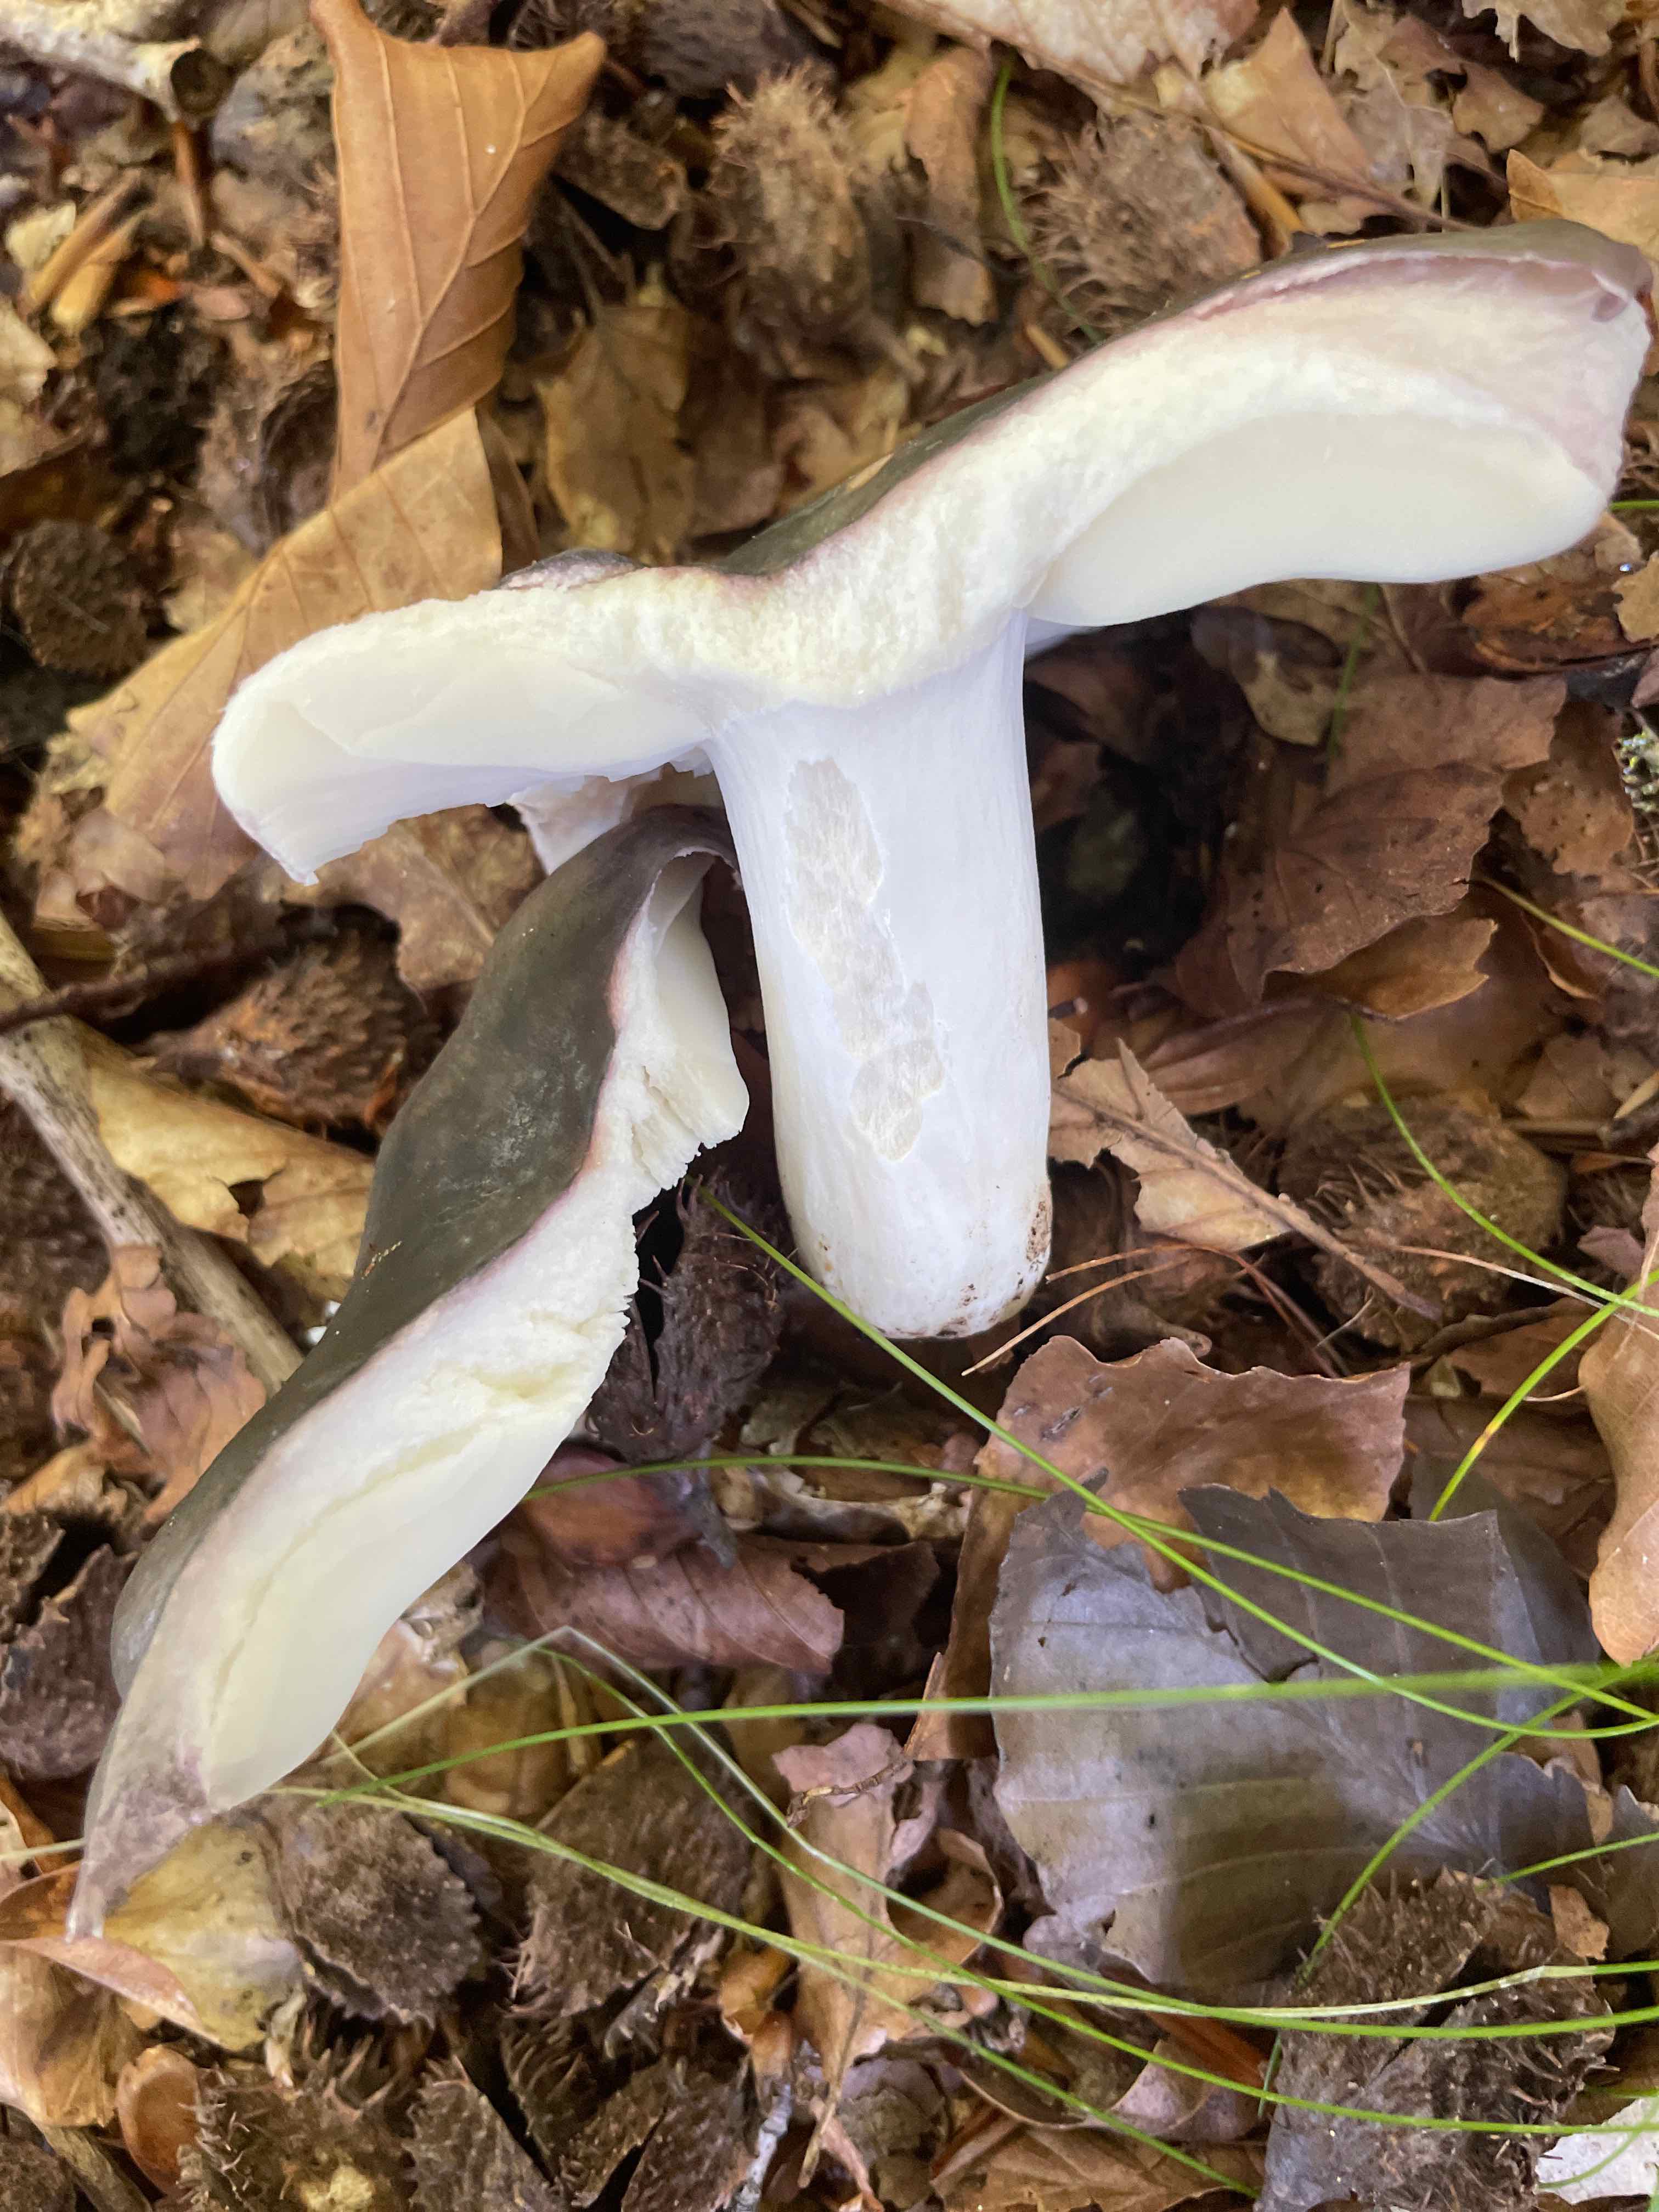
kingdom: Fungi
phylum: Basidiomycota
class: Agaricomycetes
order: Russulales
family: Russulaceae
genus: Russula
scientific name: Russula cyanoxantha
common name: broget skørhat
